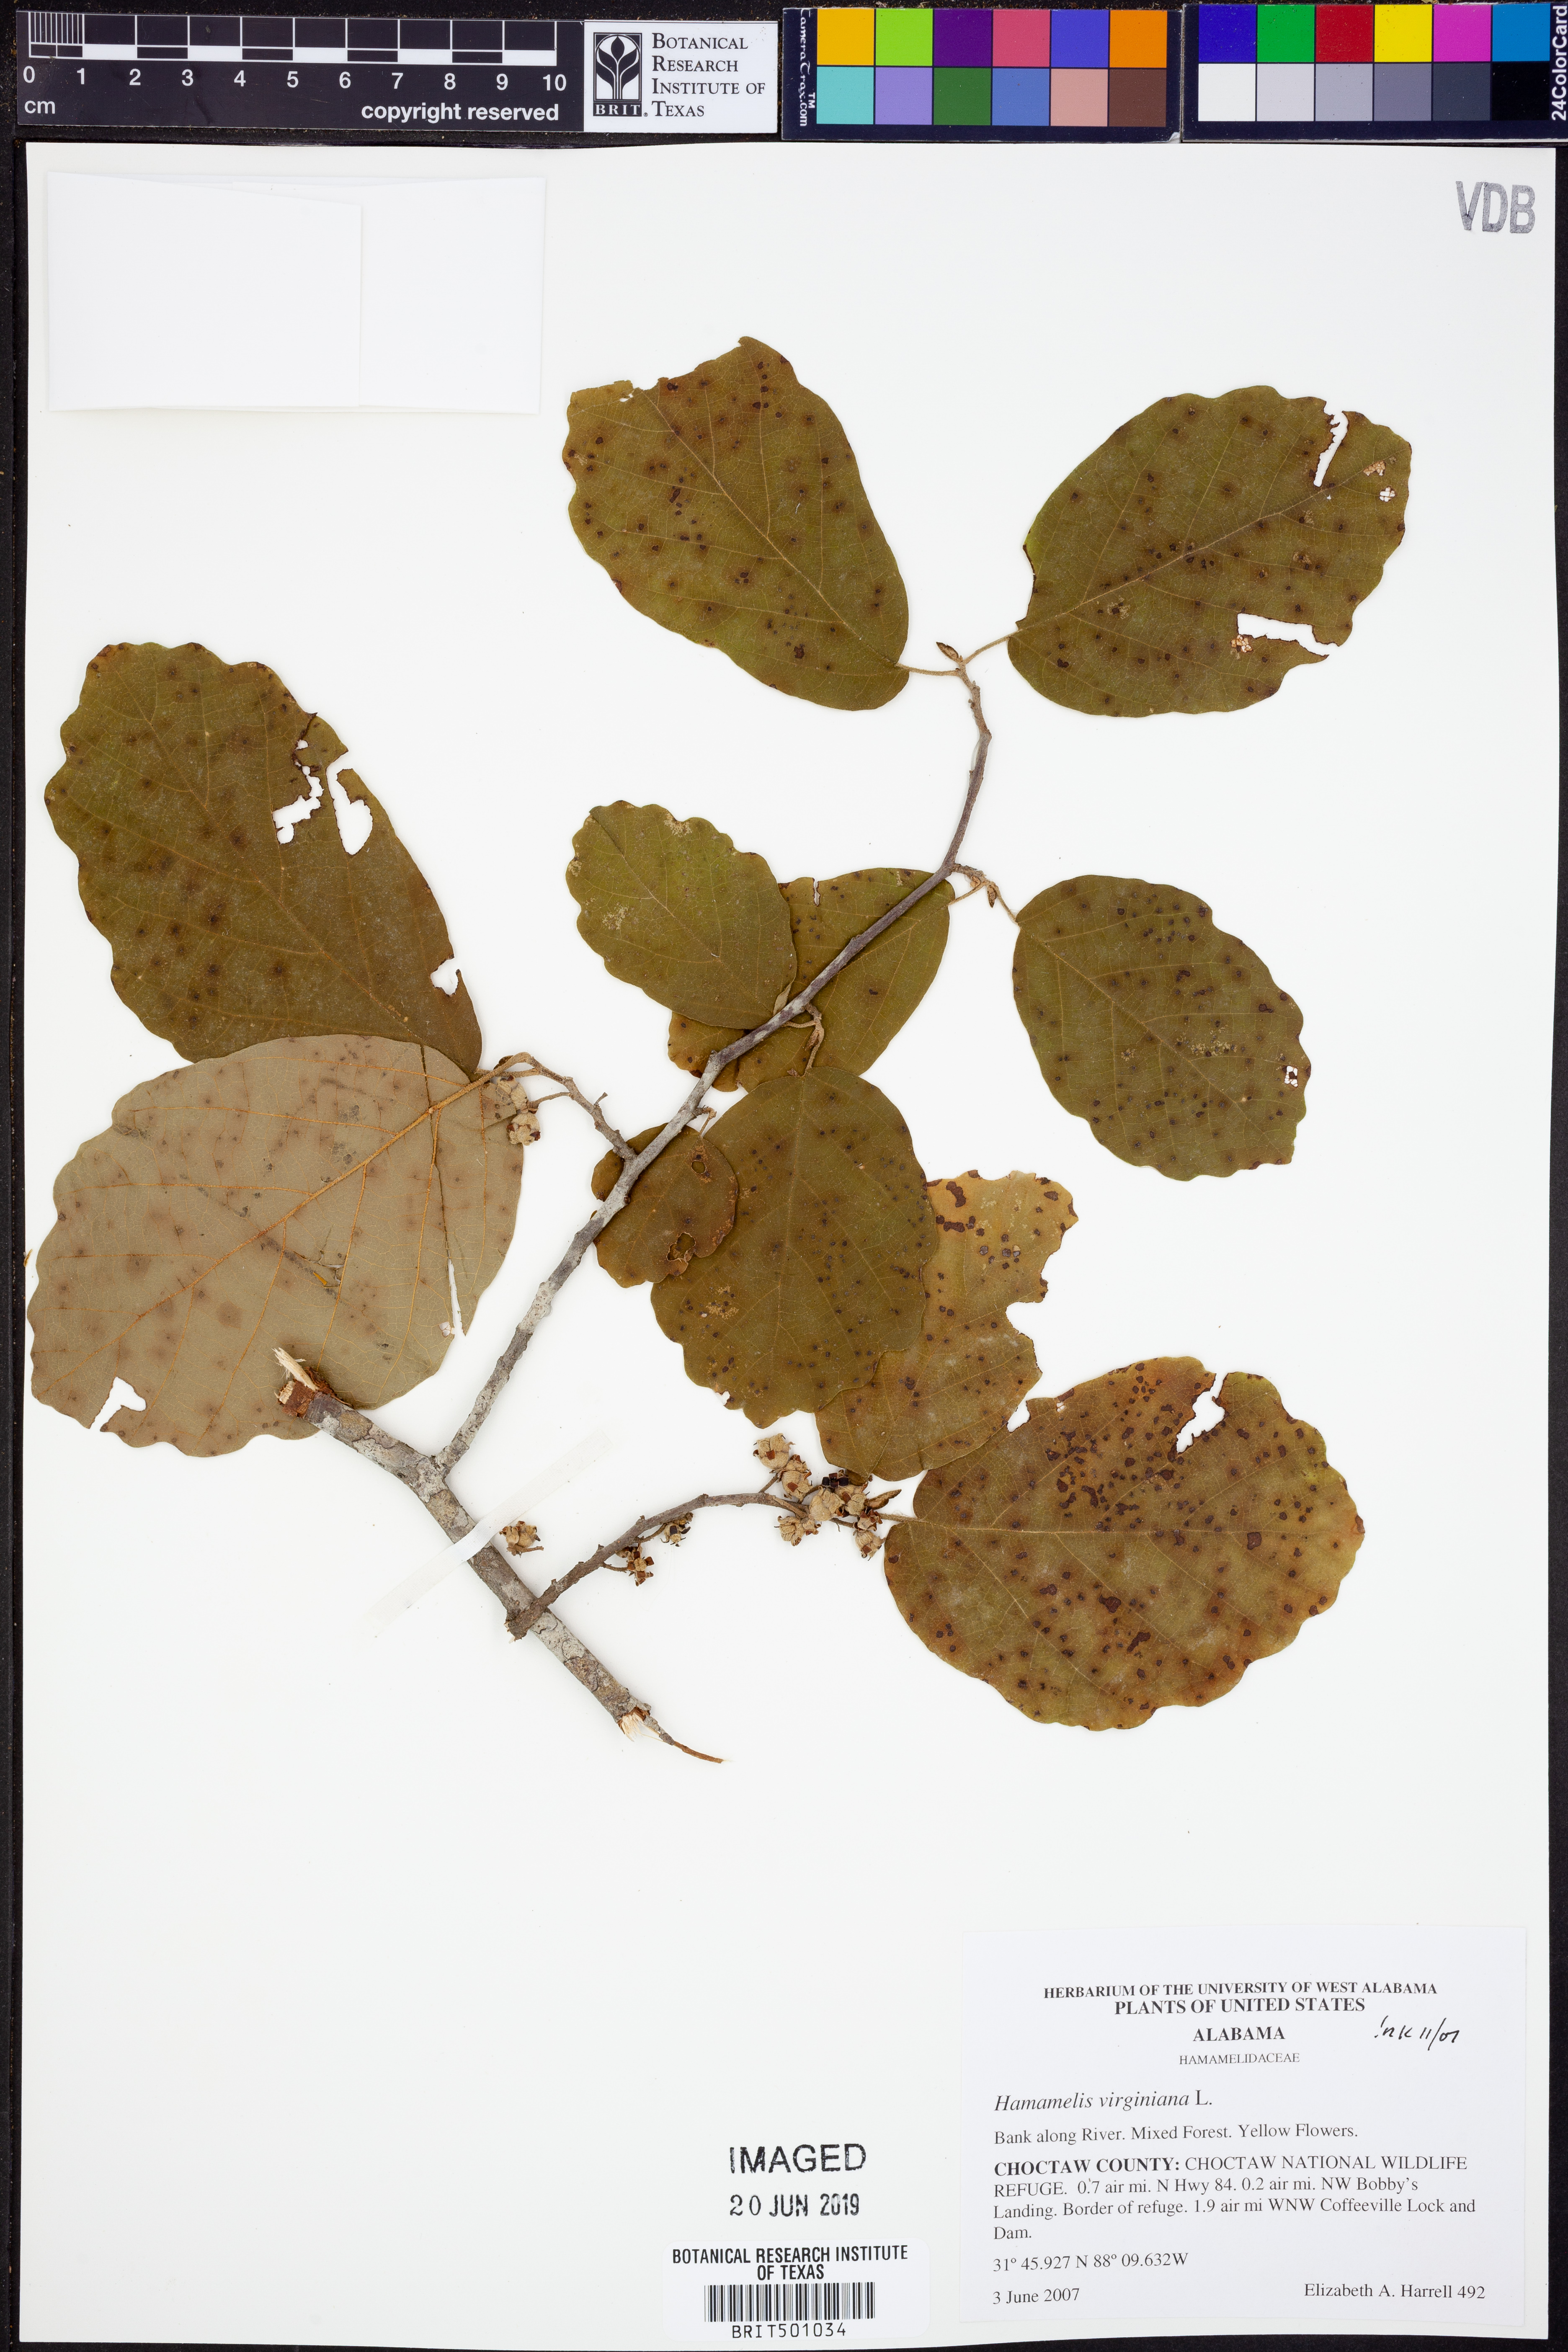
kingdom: Plantae
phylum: Tracheophyta
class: Magnoliopsida
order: Saxifragales
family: Hamamelidaceae
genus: Hamamelis
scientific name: Hamamelis virginiana
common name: Witch-hazel
